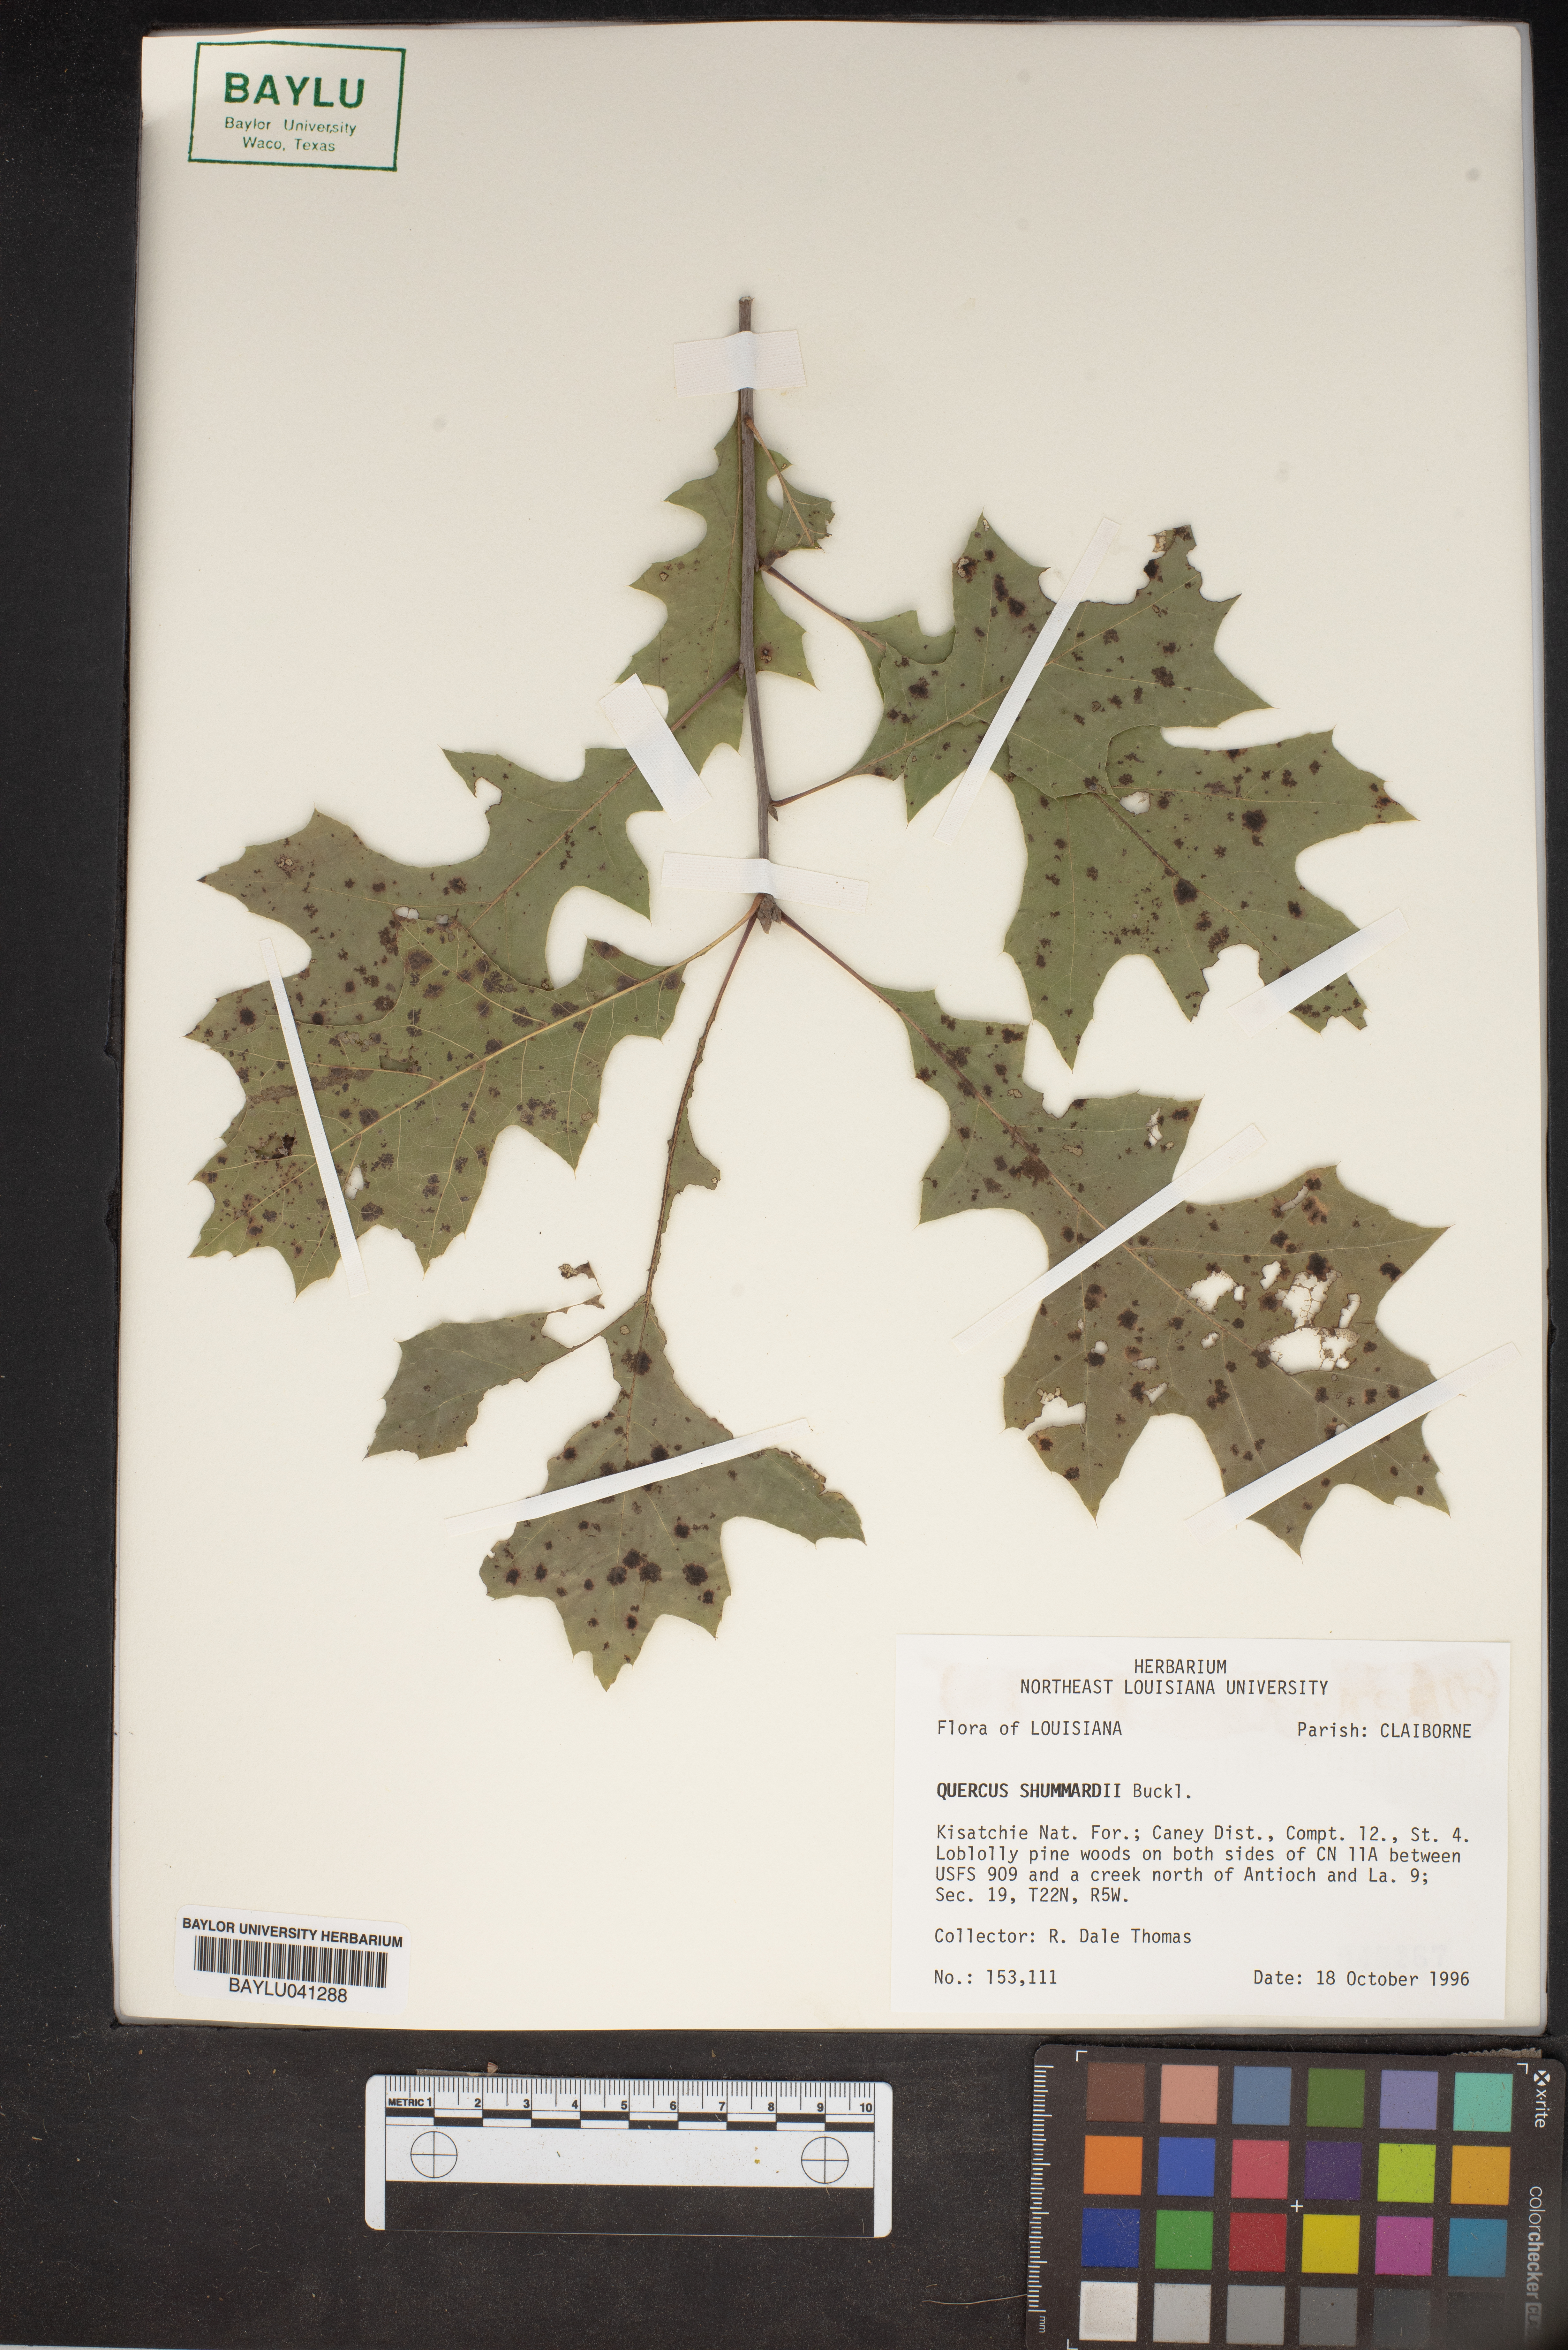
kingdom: Plantae
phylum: Tracheophyta
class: Magnoliopsida
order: Fagales
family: Fagaceae
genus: Quercus
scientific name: Quercus shumardii
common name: Shumard oak
